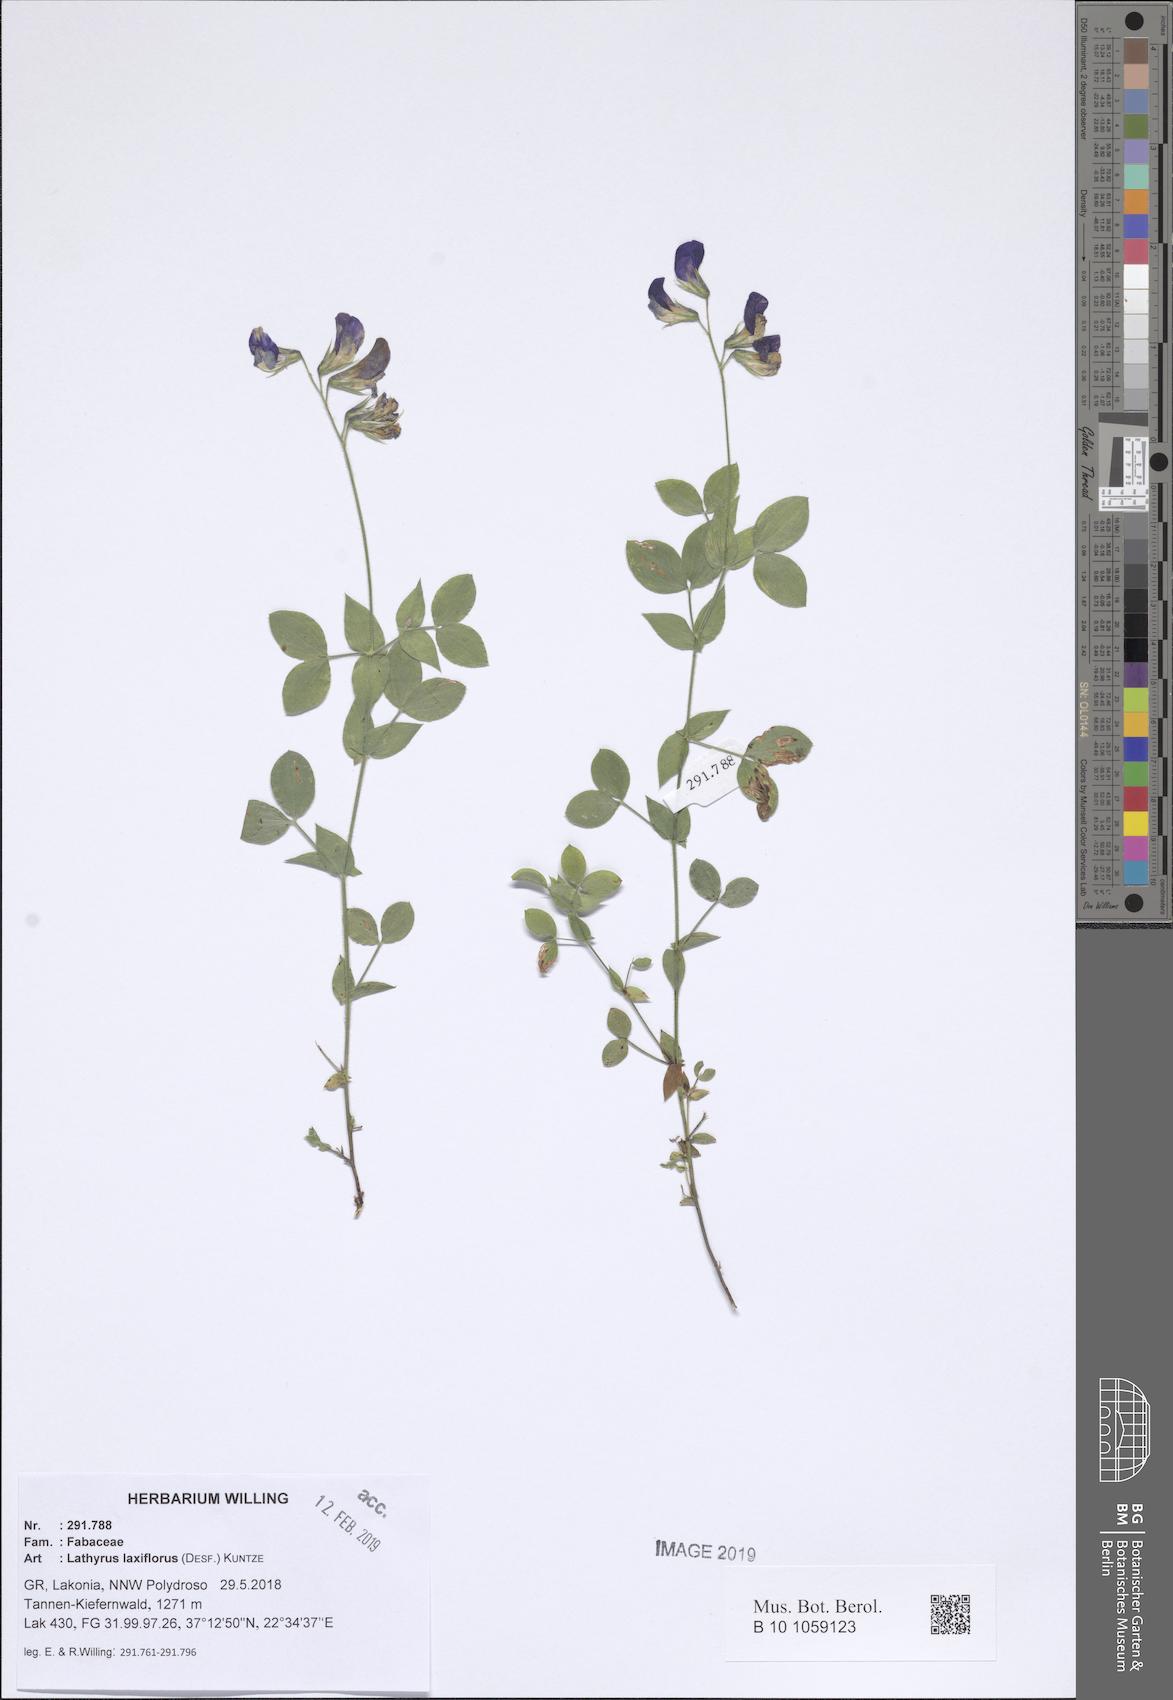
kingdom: Plantae
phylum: Tracheophyta
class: Magnoliopsida
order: Fabales
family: Fabaceae
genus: Lathyrus
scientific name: Lathyrus laxiflorus
